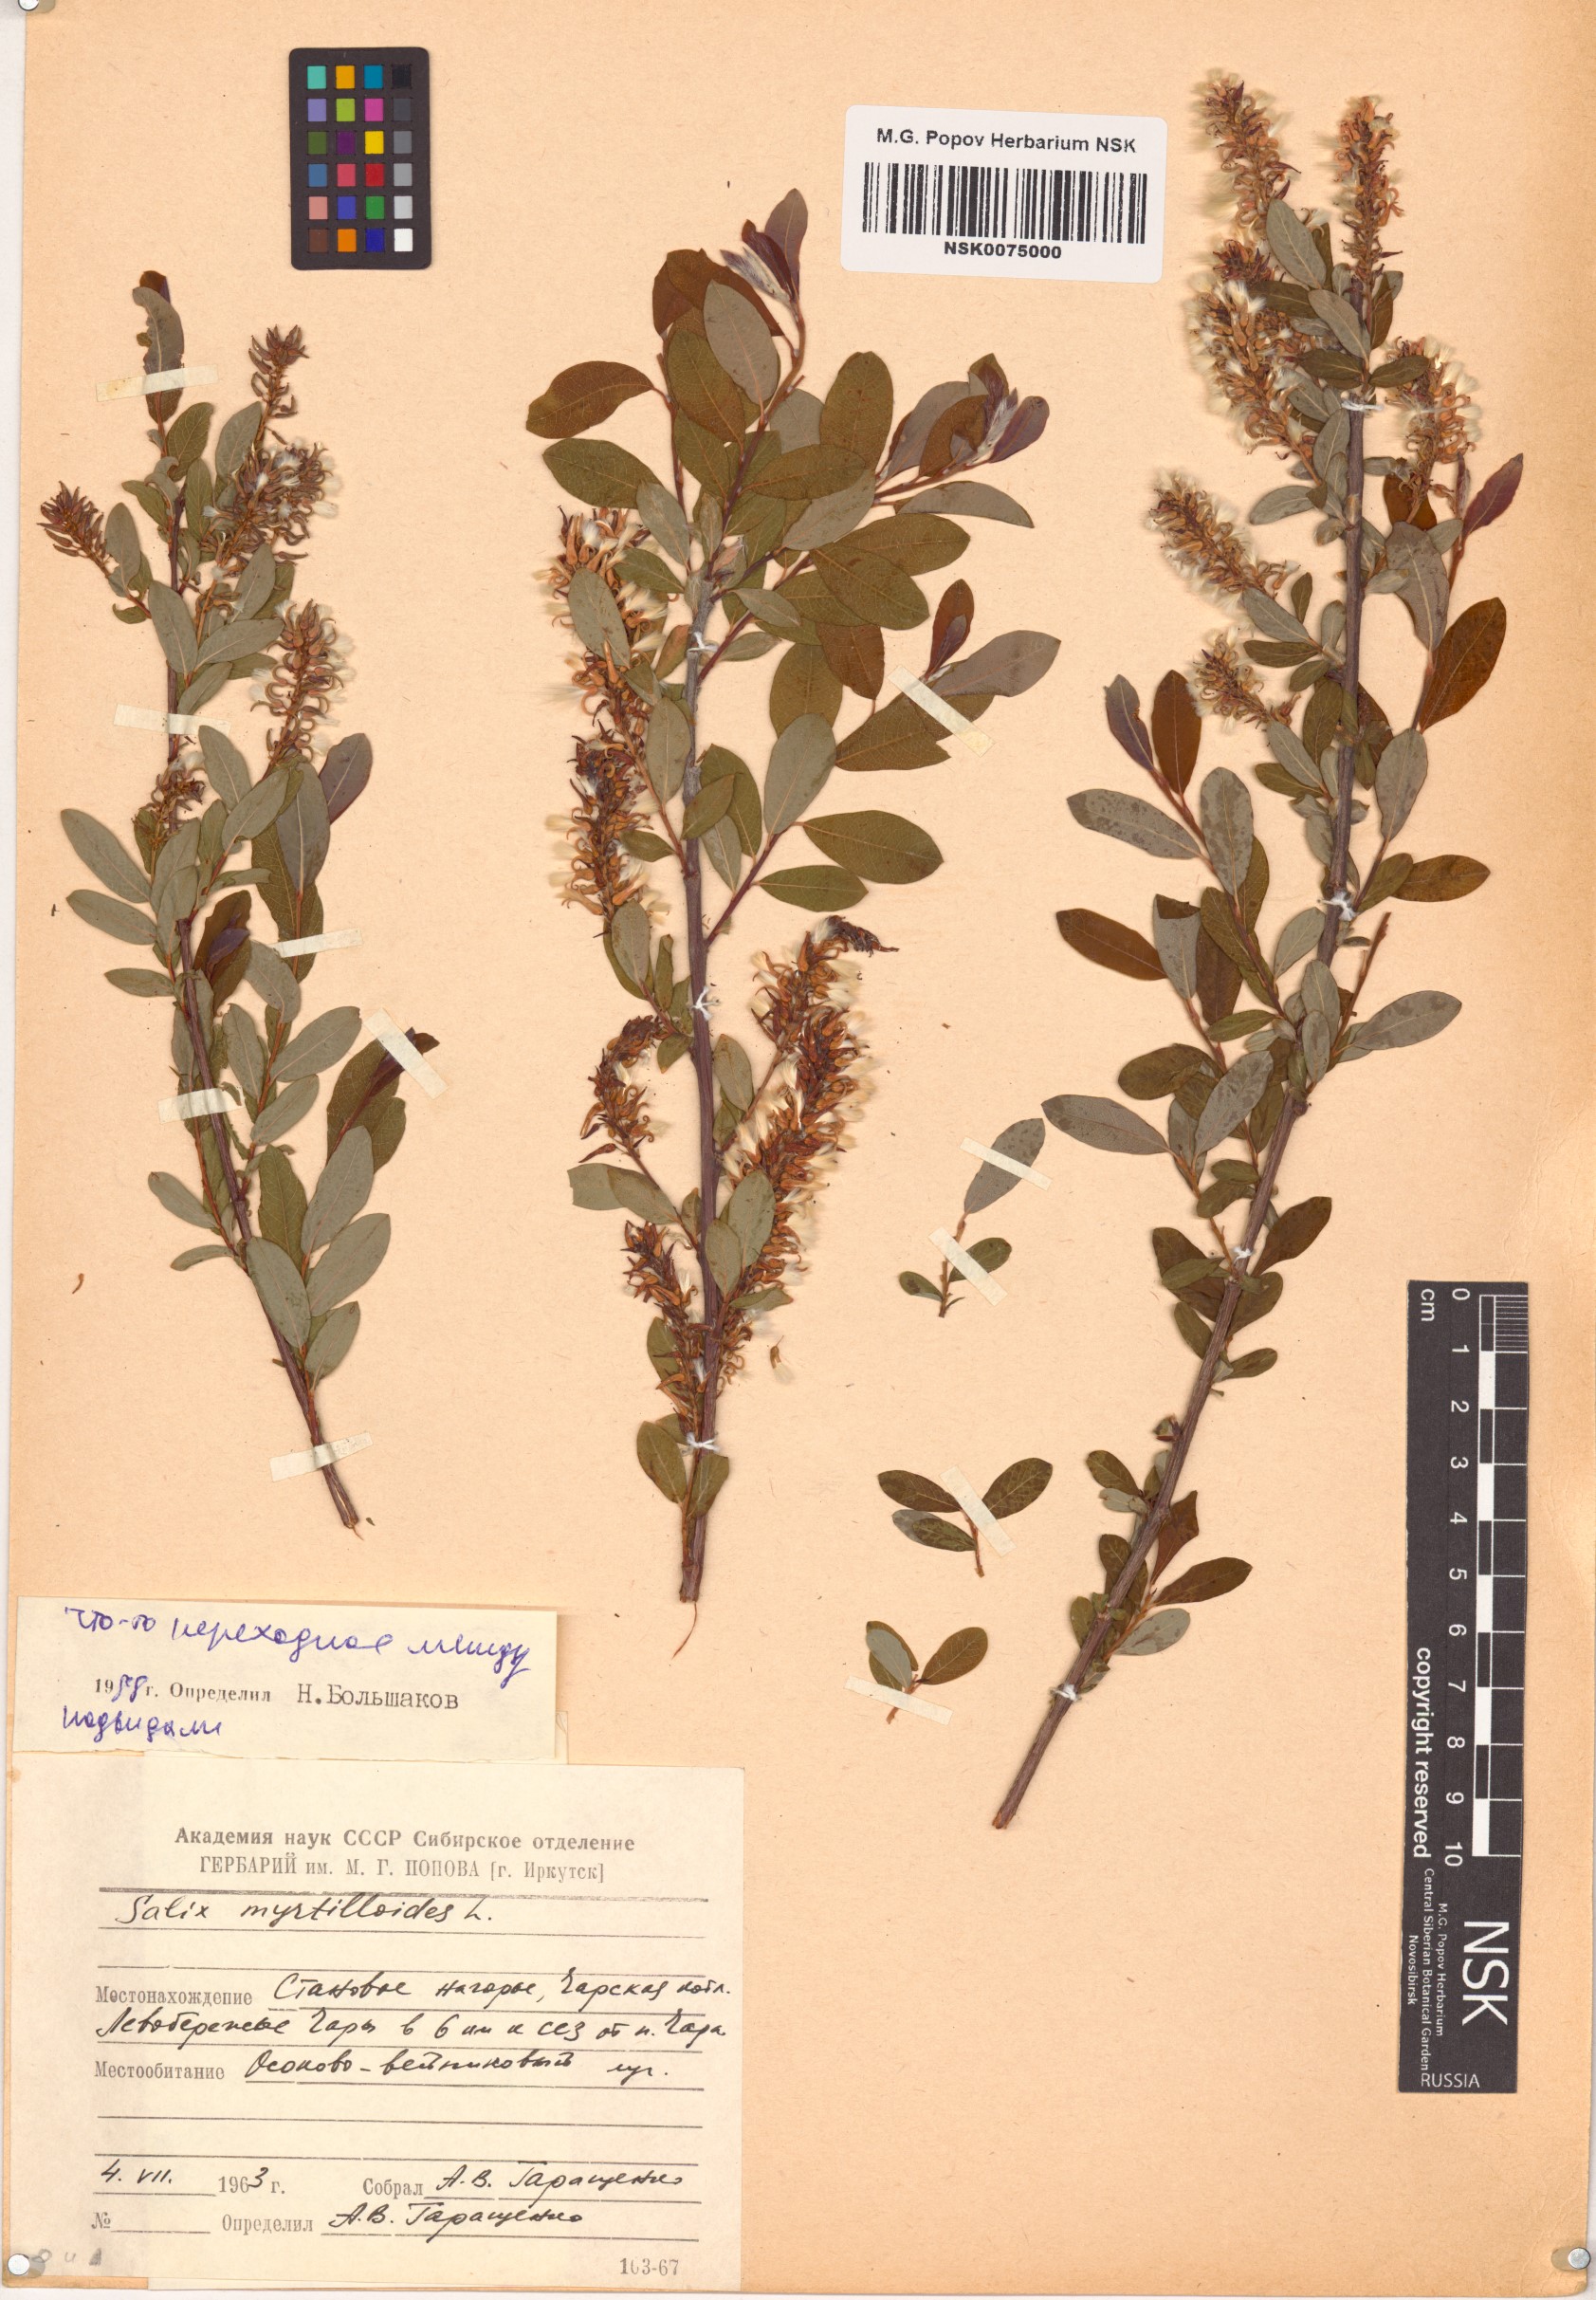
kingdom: Plantae
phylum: Tracheophyta
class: Magnoliopsida
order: Malpighiales
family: Salicaceae
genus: Salix
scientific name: Salix myrtilloides
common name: Myrtle-leaved willow
